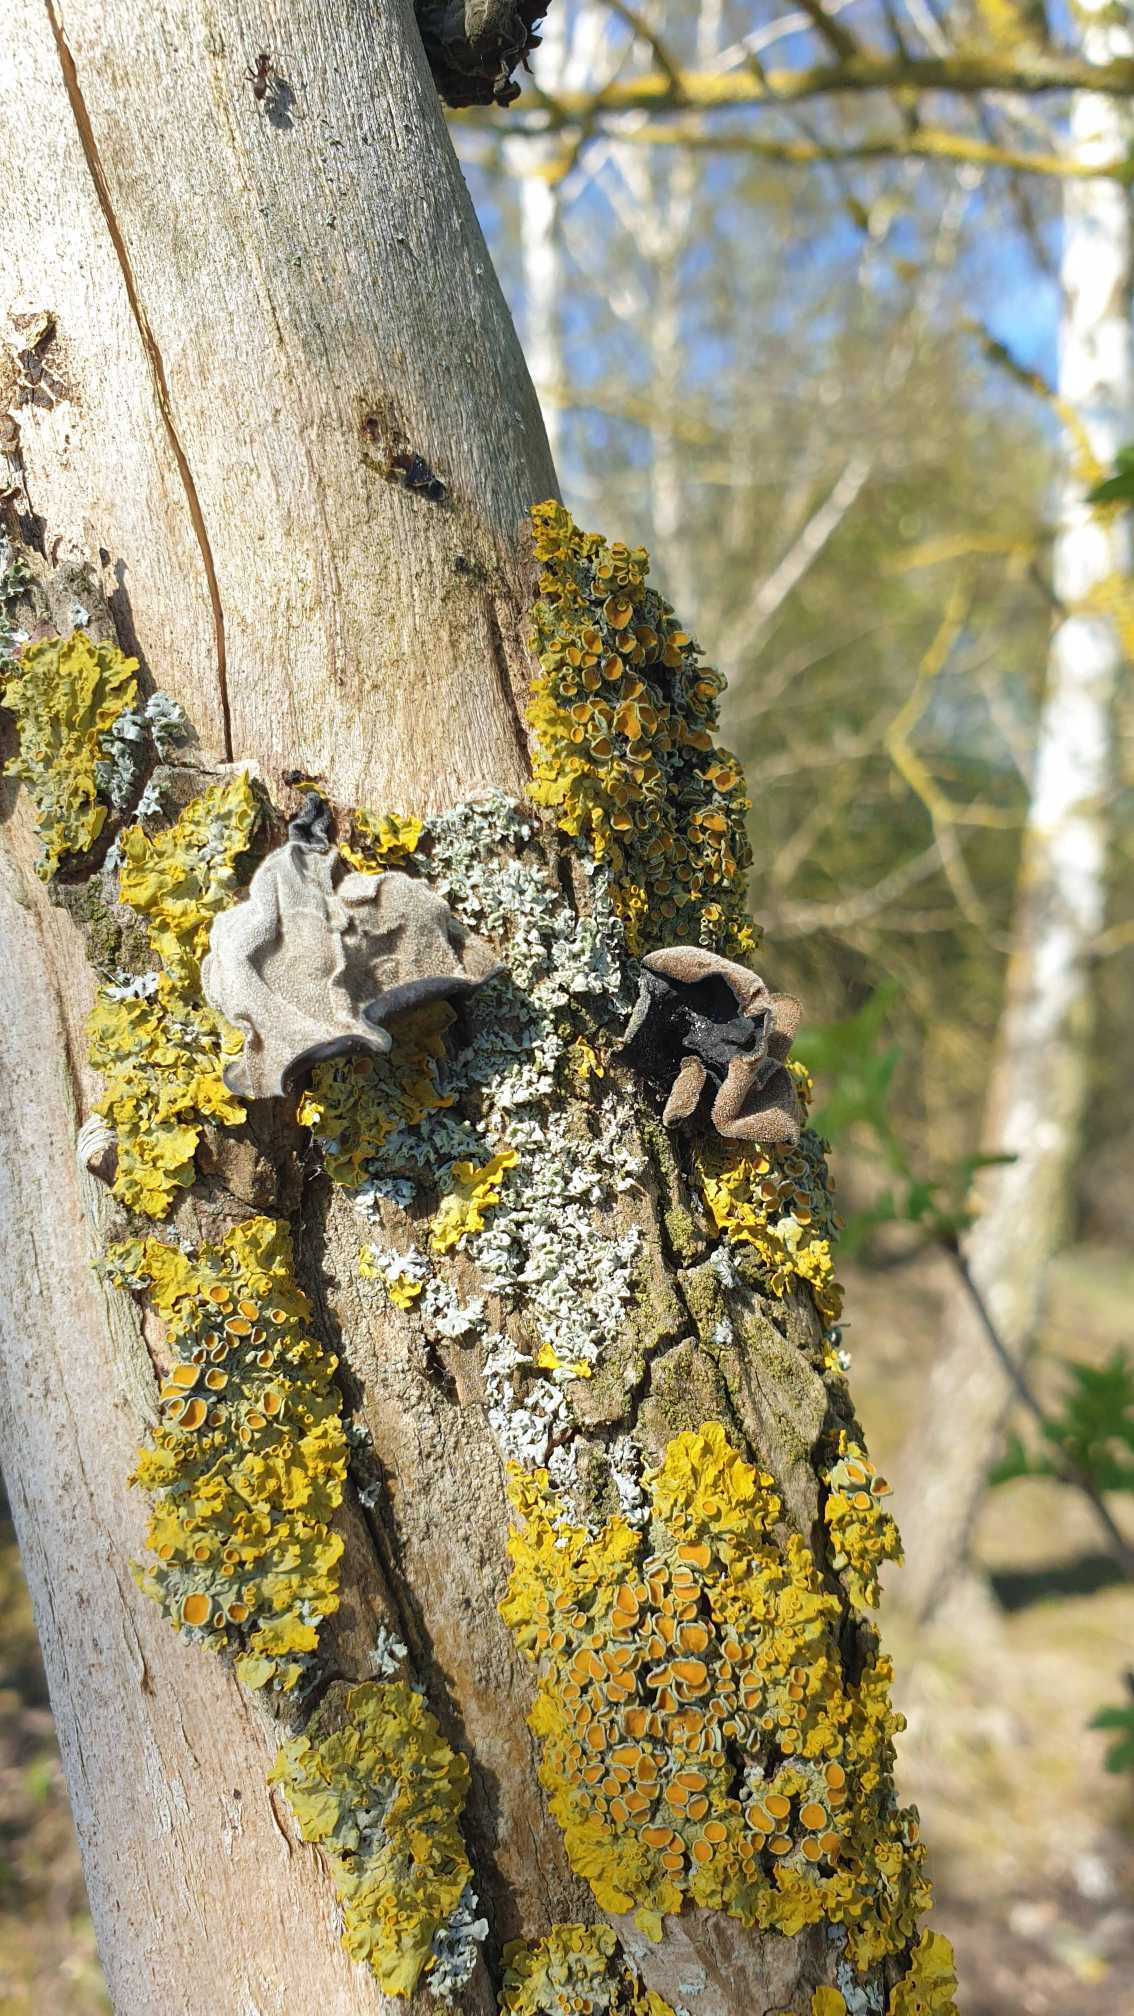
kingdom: Fungi
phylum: Basidiomycota
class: Agaricomycetes
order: Auriculariales
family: Auriculariaceae
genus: Auricularia
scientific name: Auricularia auricula-judae
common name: Almindelig judasøre
